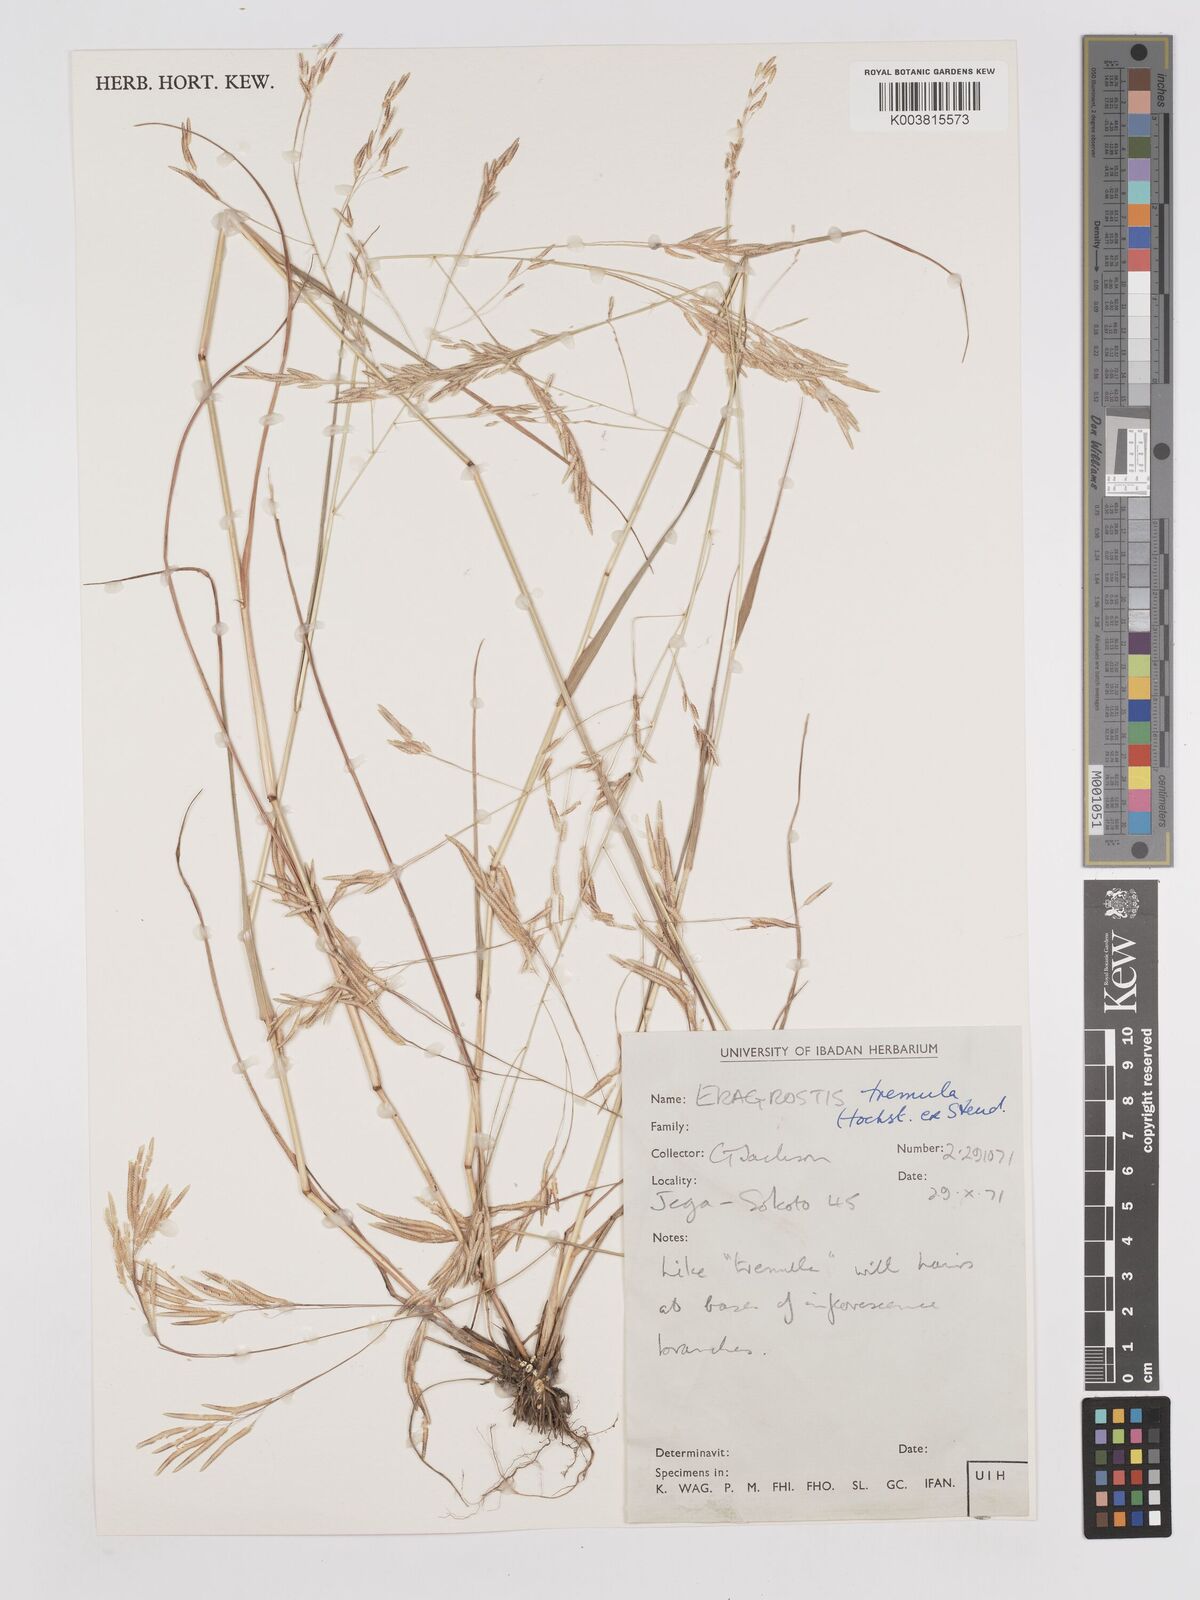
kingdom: Plantae
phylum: Tracheophyta
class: Liliopsida
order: Poales
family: Poaceae
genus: Eragrostis
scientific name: Eragrostis tremula
